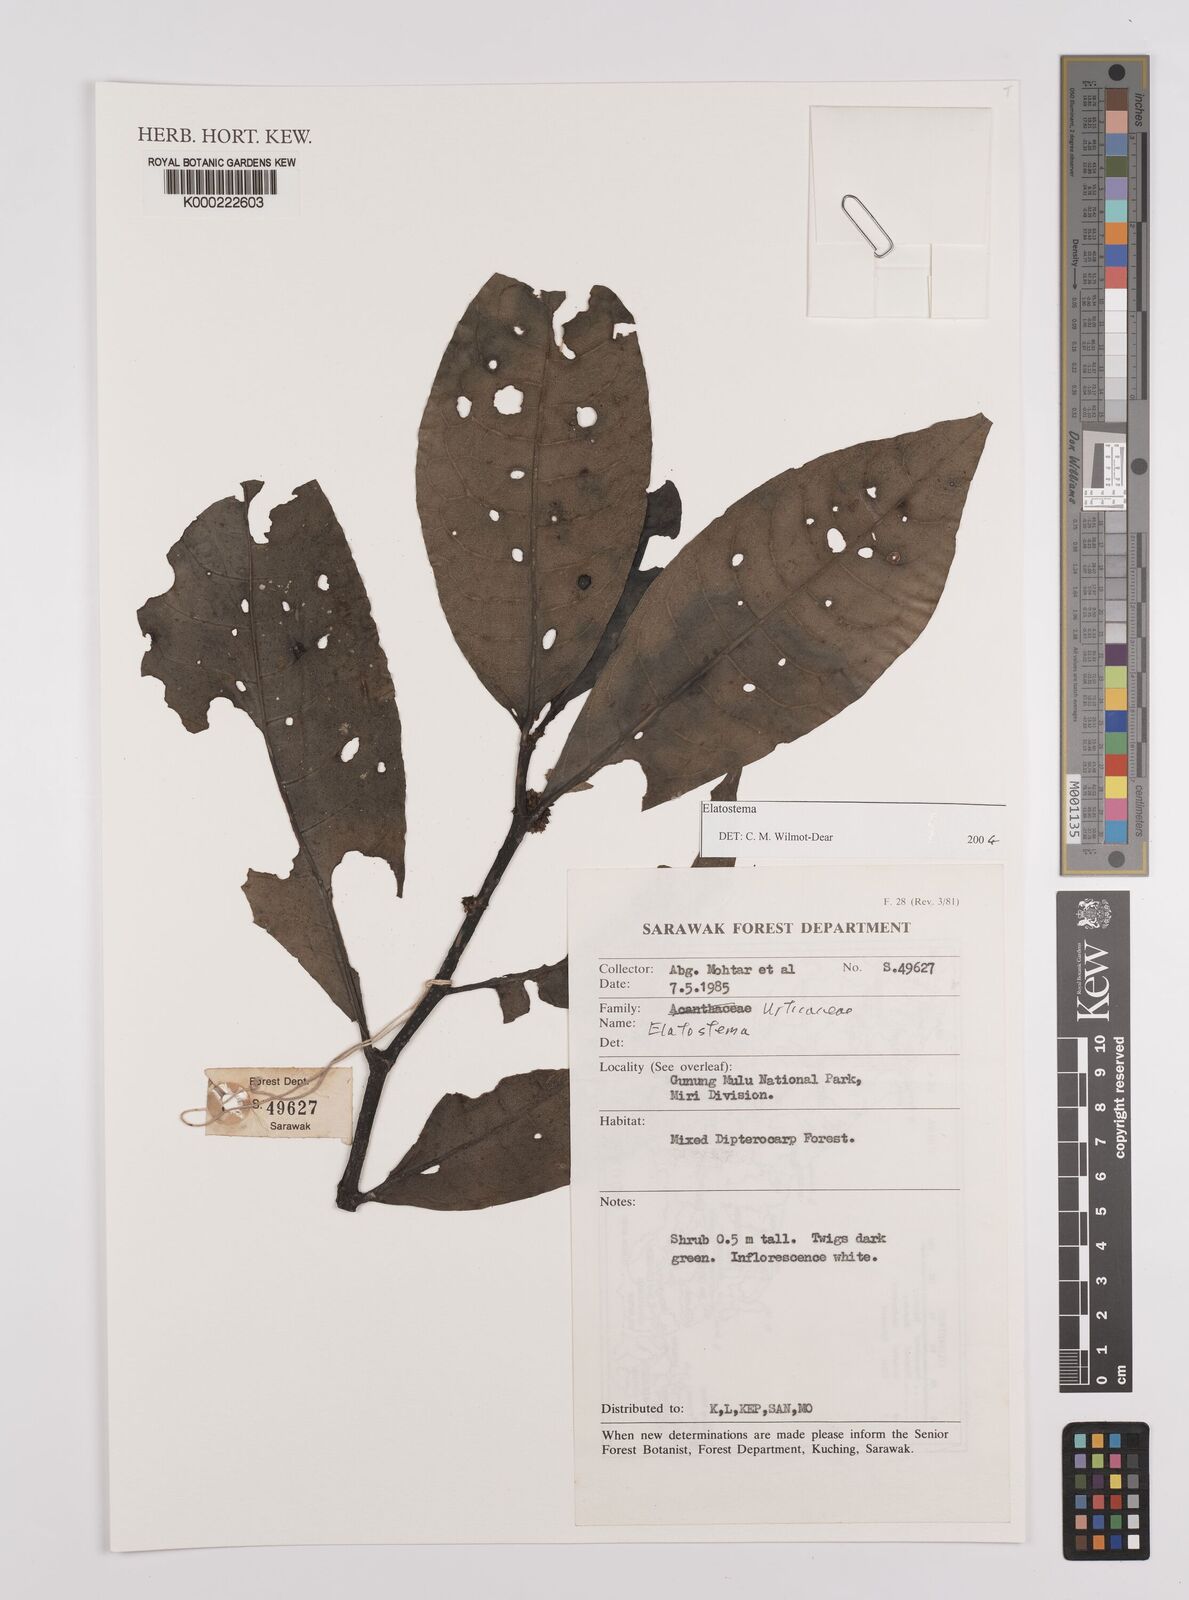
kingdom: Plantae
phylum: Tracheophyta
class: Magnoliopsida
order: Rosales
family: Urticaceae
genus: Cypholophus
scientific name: Cypholophus moluccanus
